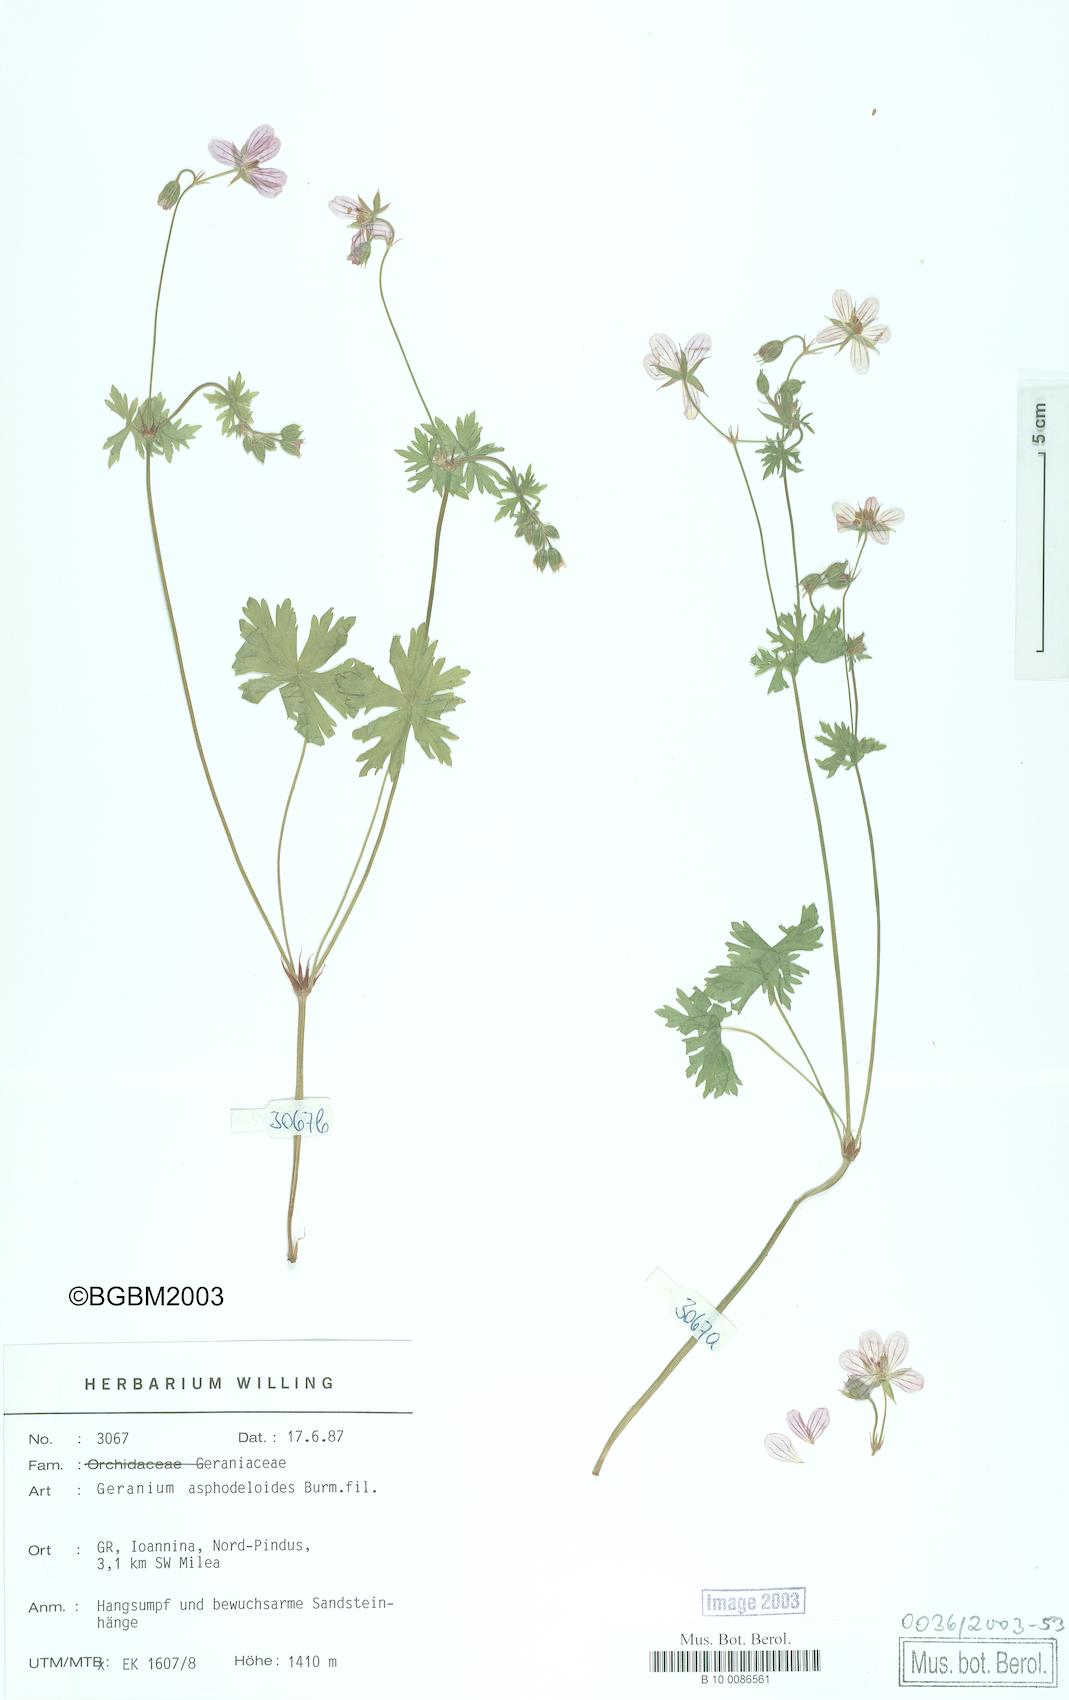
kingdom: Plantae
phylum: Tracheophyta
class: Magnoliopsida
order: Geraniales
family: Geraniaceae
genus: Geranium
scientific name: Geranium asphodeloides
